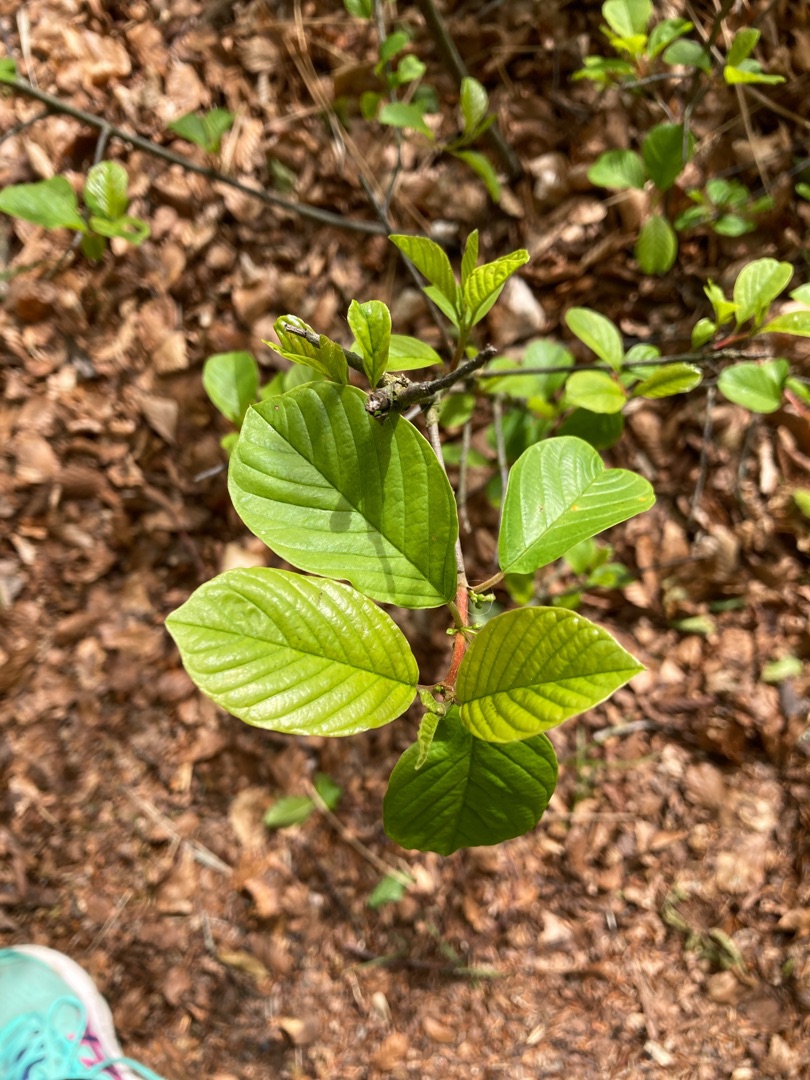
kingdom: Plantae
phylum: Tracheophyta
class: Magnoliopsida
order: Rosales
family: Rhamnaceae
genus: Frangula
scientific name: Frangula alnus
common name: Tørst
